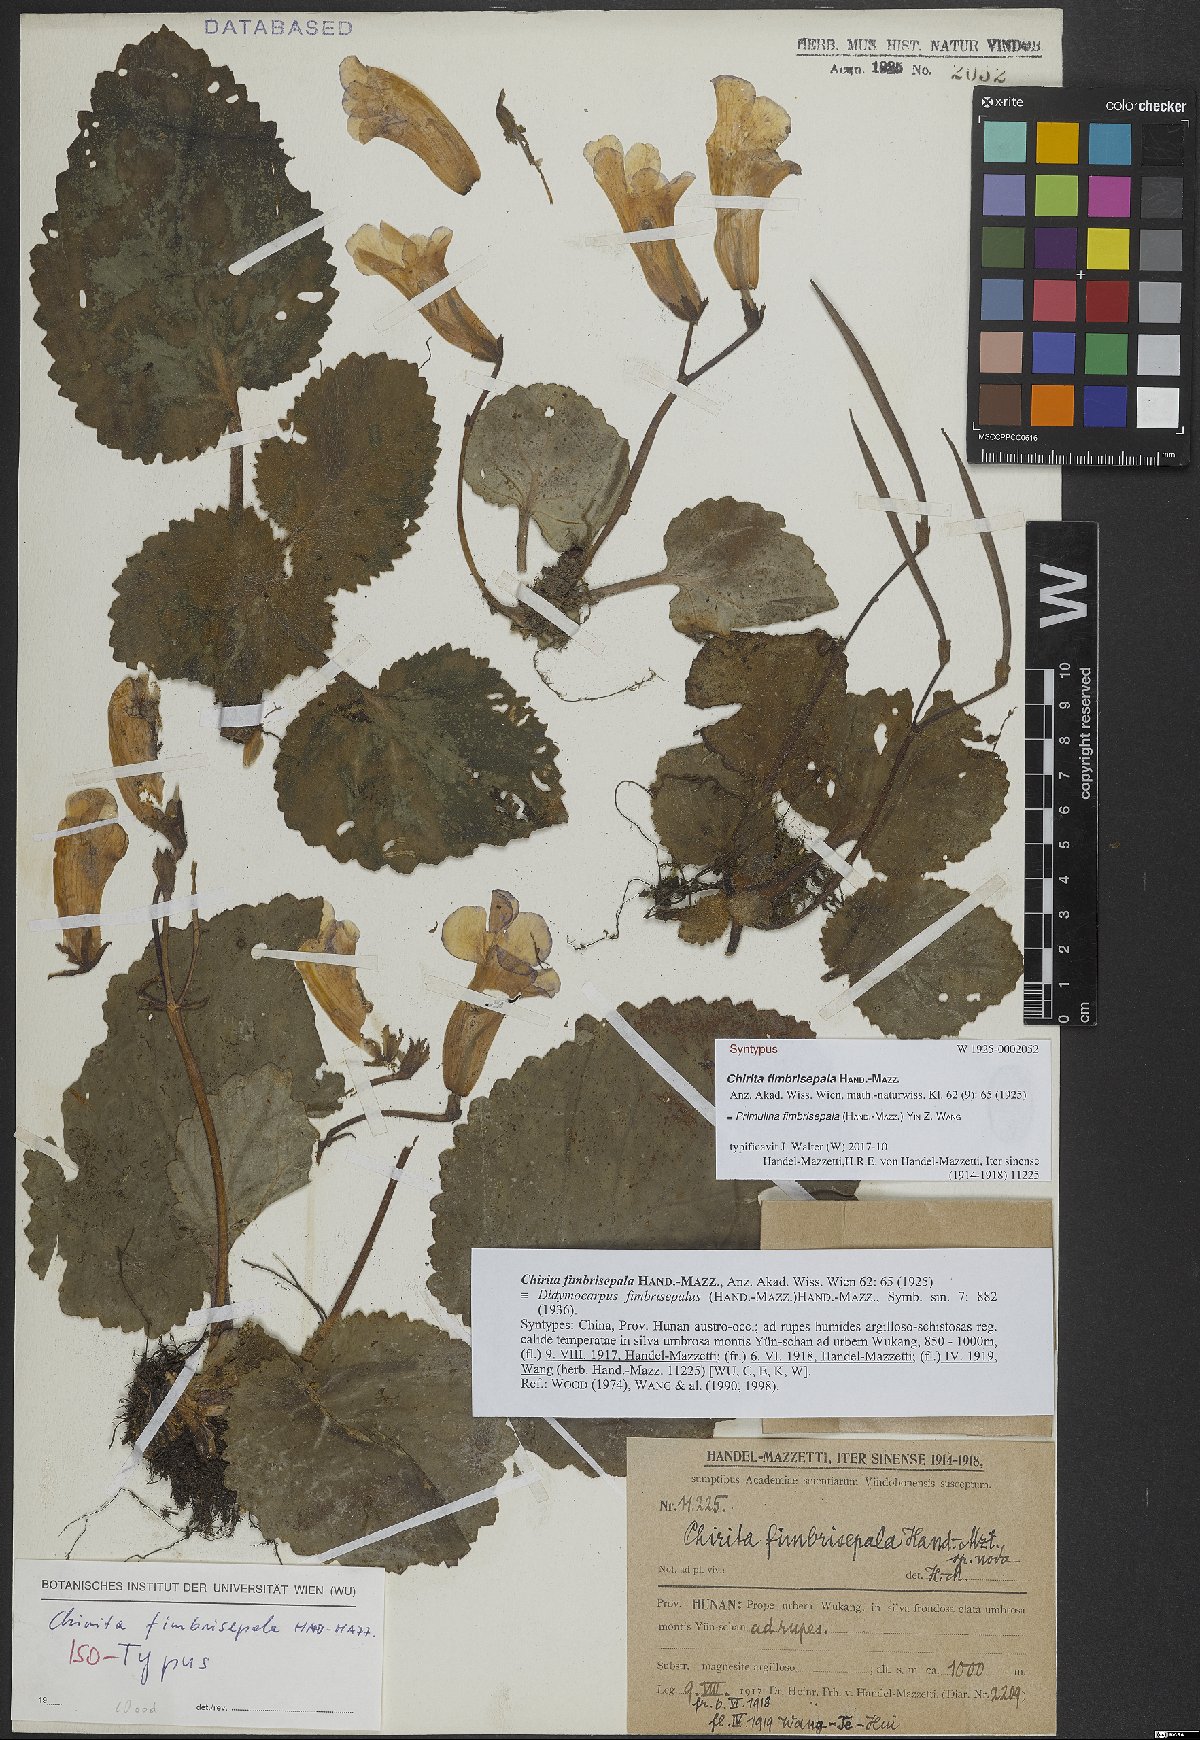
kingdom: Plantae
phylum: Tracheophyta
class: Magnoliopsida
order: Lamiales
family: Gesneriaceae
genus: Primulina
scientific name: Primulina fimbrisepala
